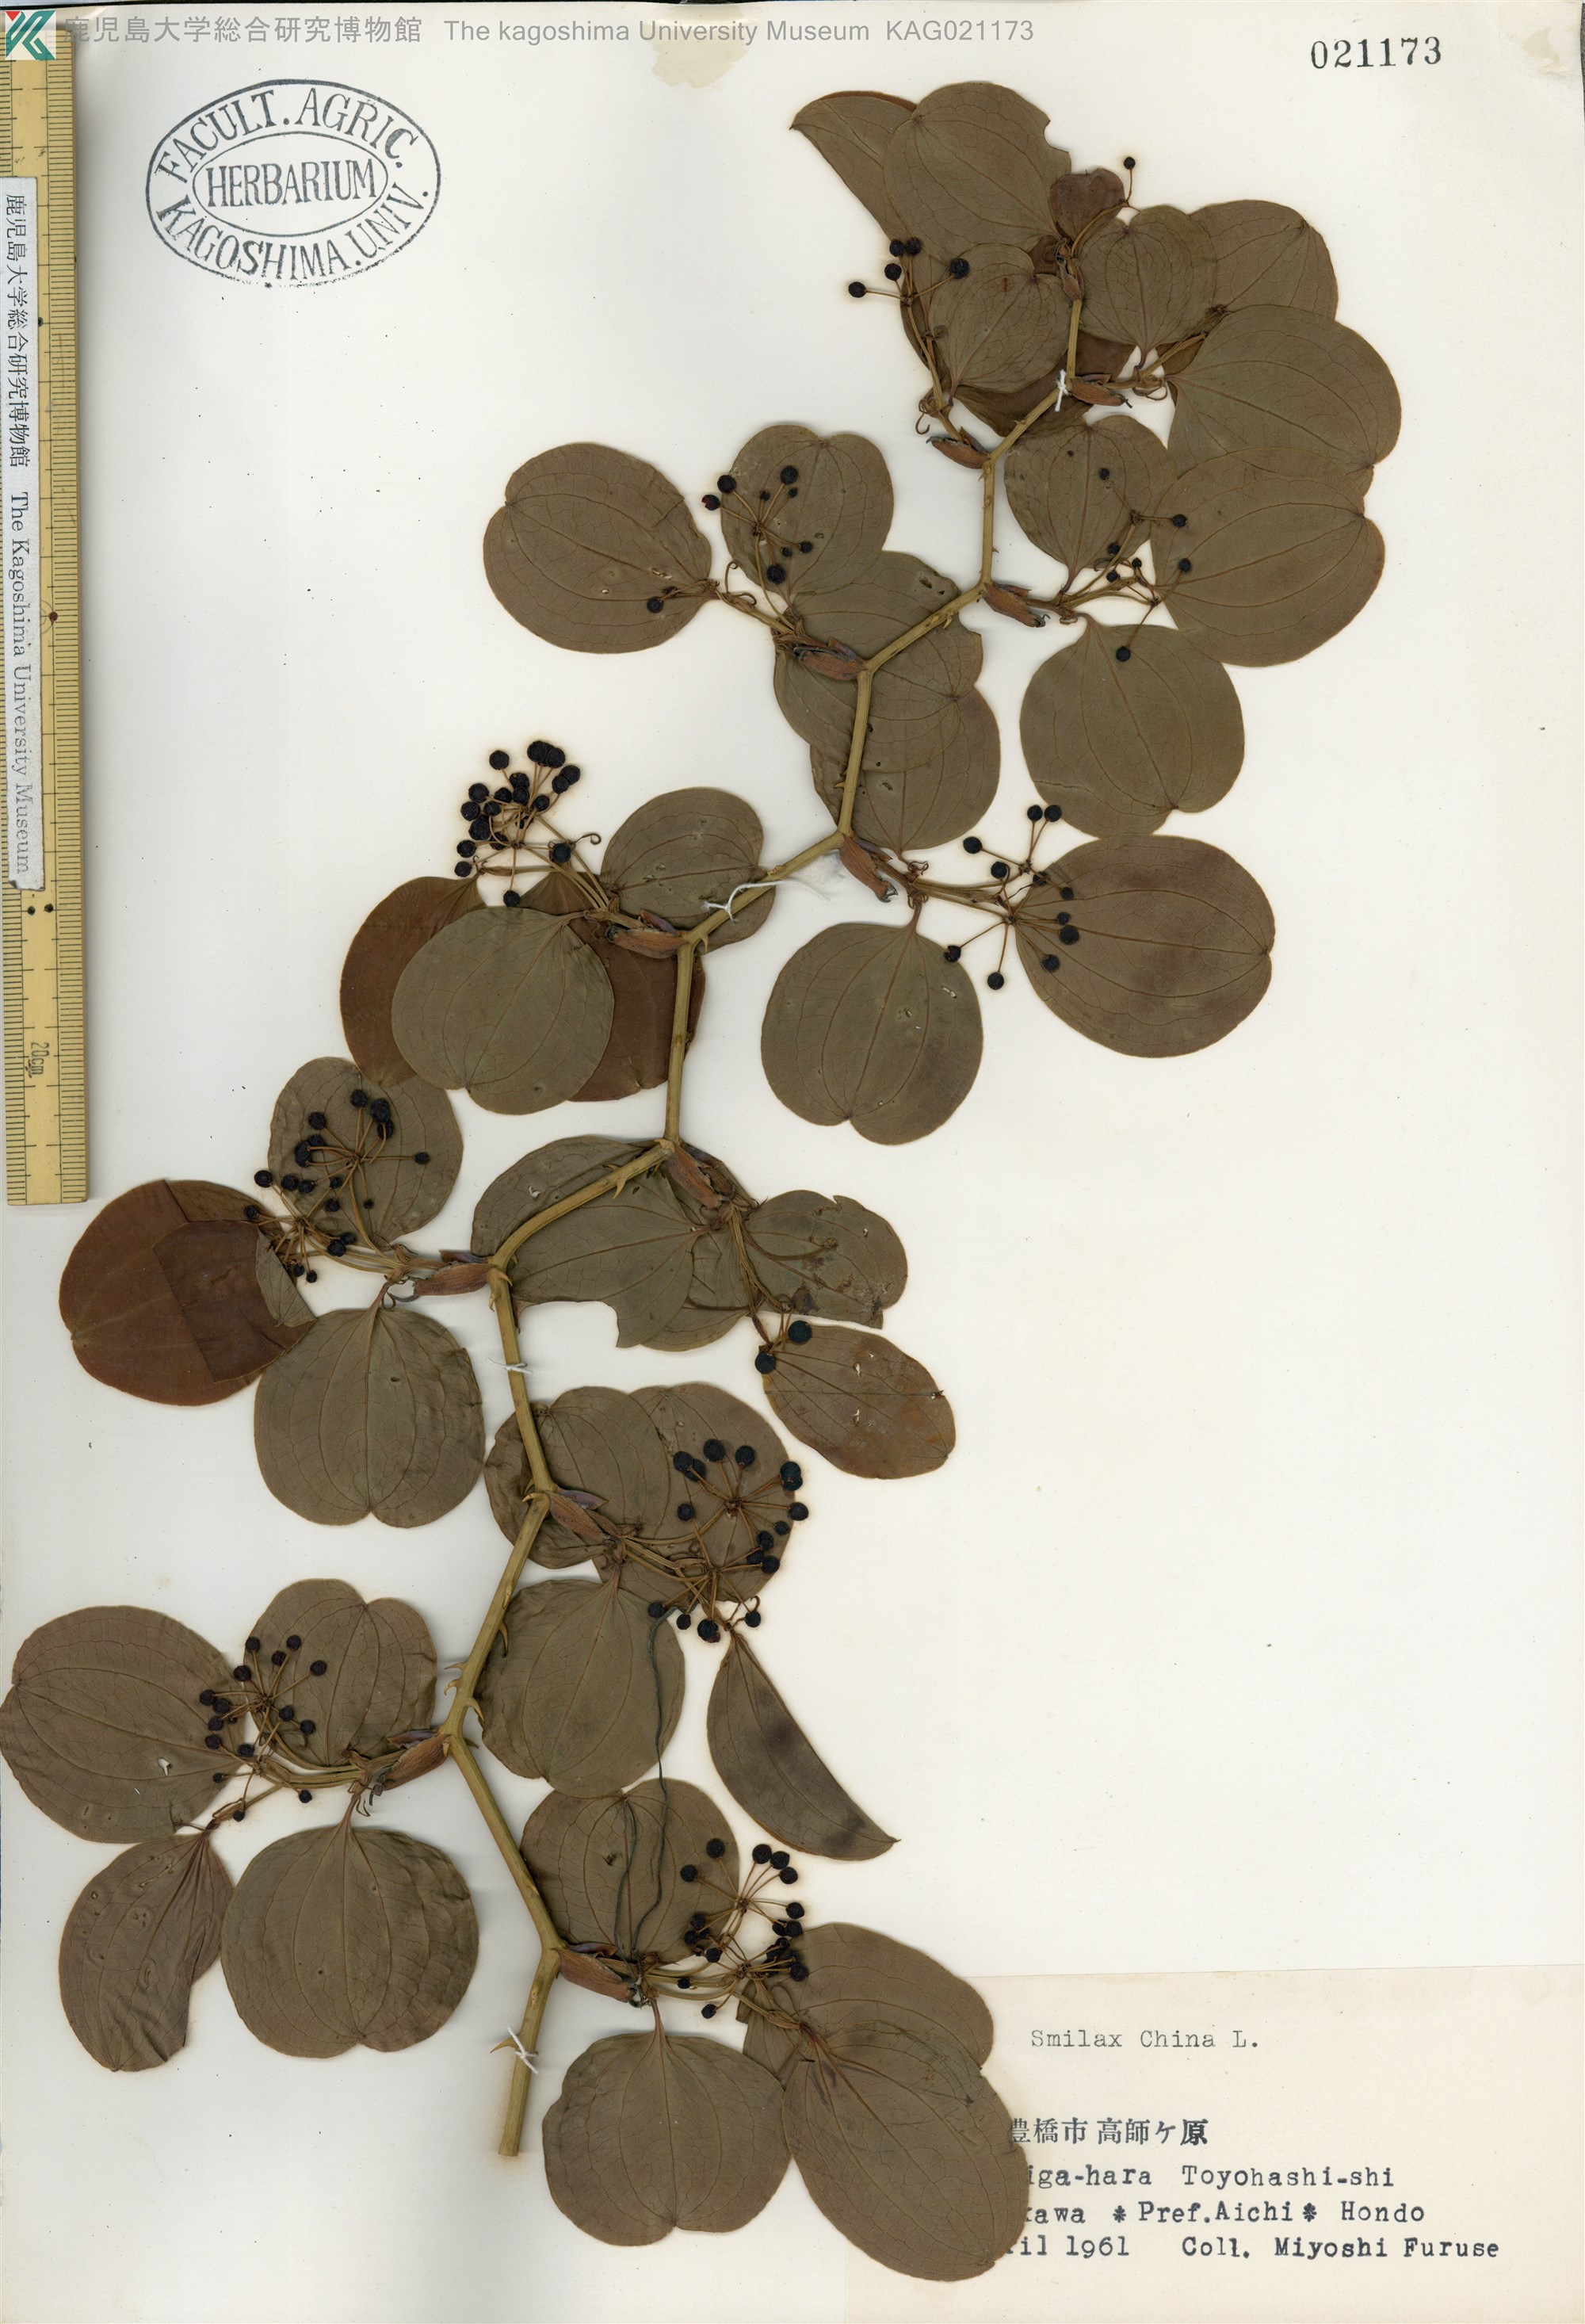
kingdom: Plantae
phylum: Tracheophyta
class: Liliopsida
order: Liliales
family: Smilacaceae
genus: Smilax
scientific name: Smilax china
